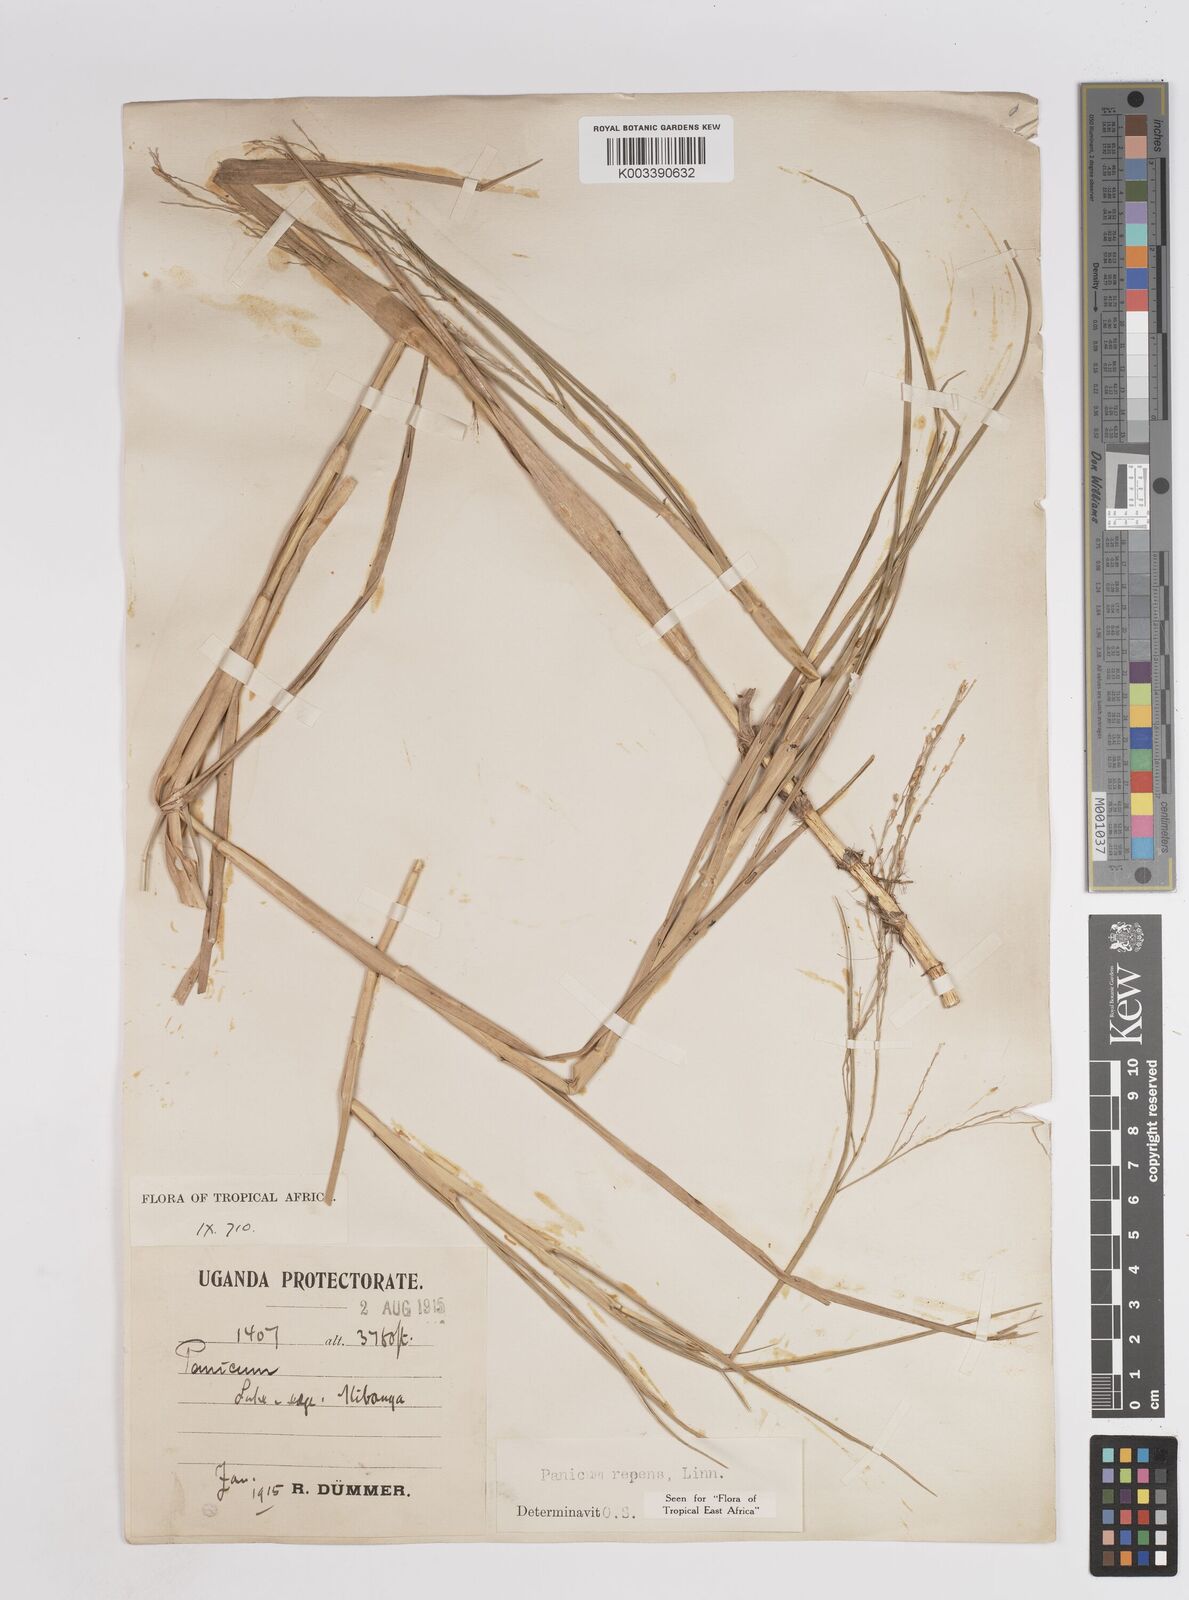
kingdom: Plantae
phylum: Tracheophyta
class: Liliopsida
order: Poales
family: Poaceae
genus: Panicum
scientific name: Panicum repens
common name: Torpedo grass
